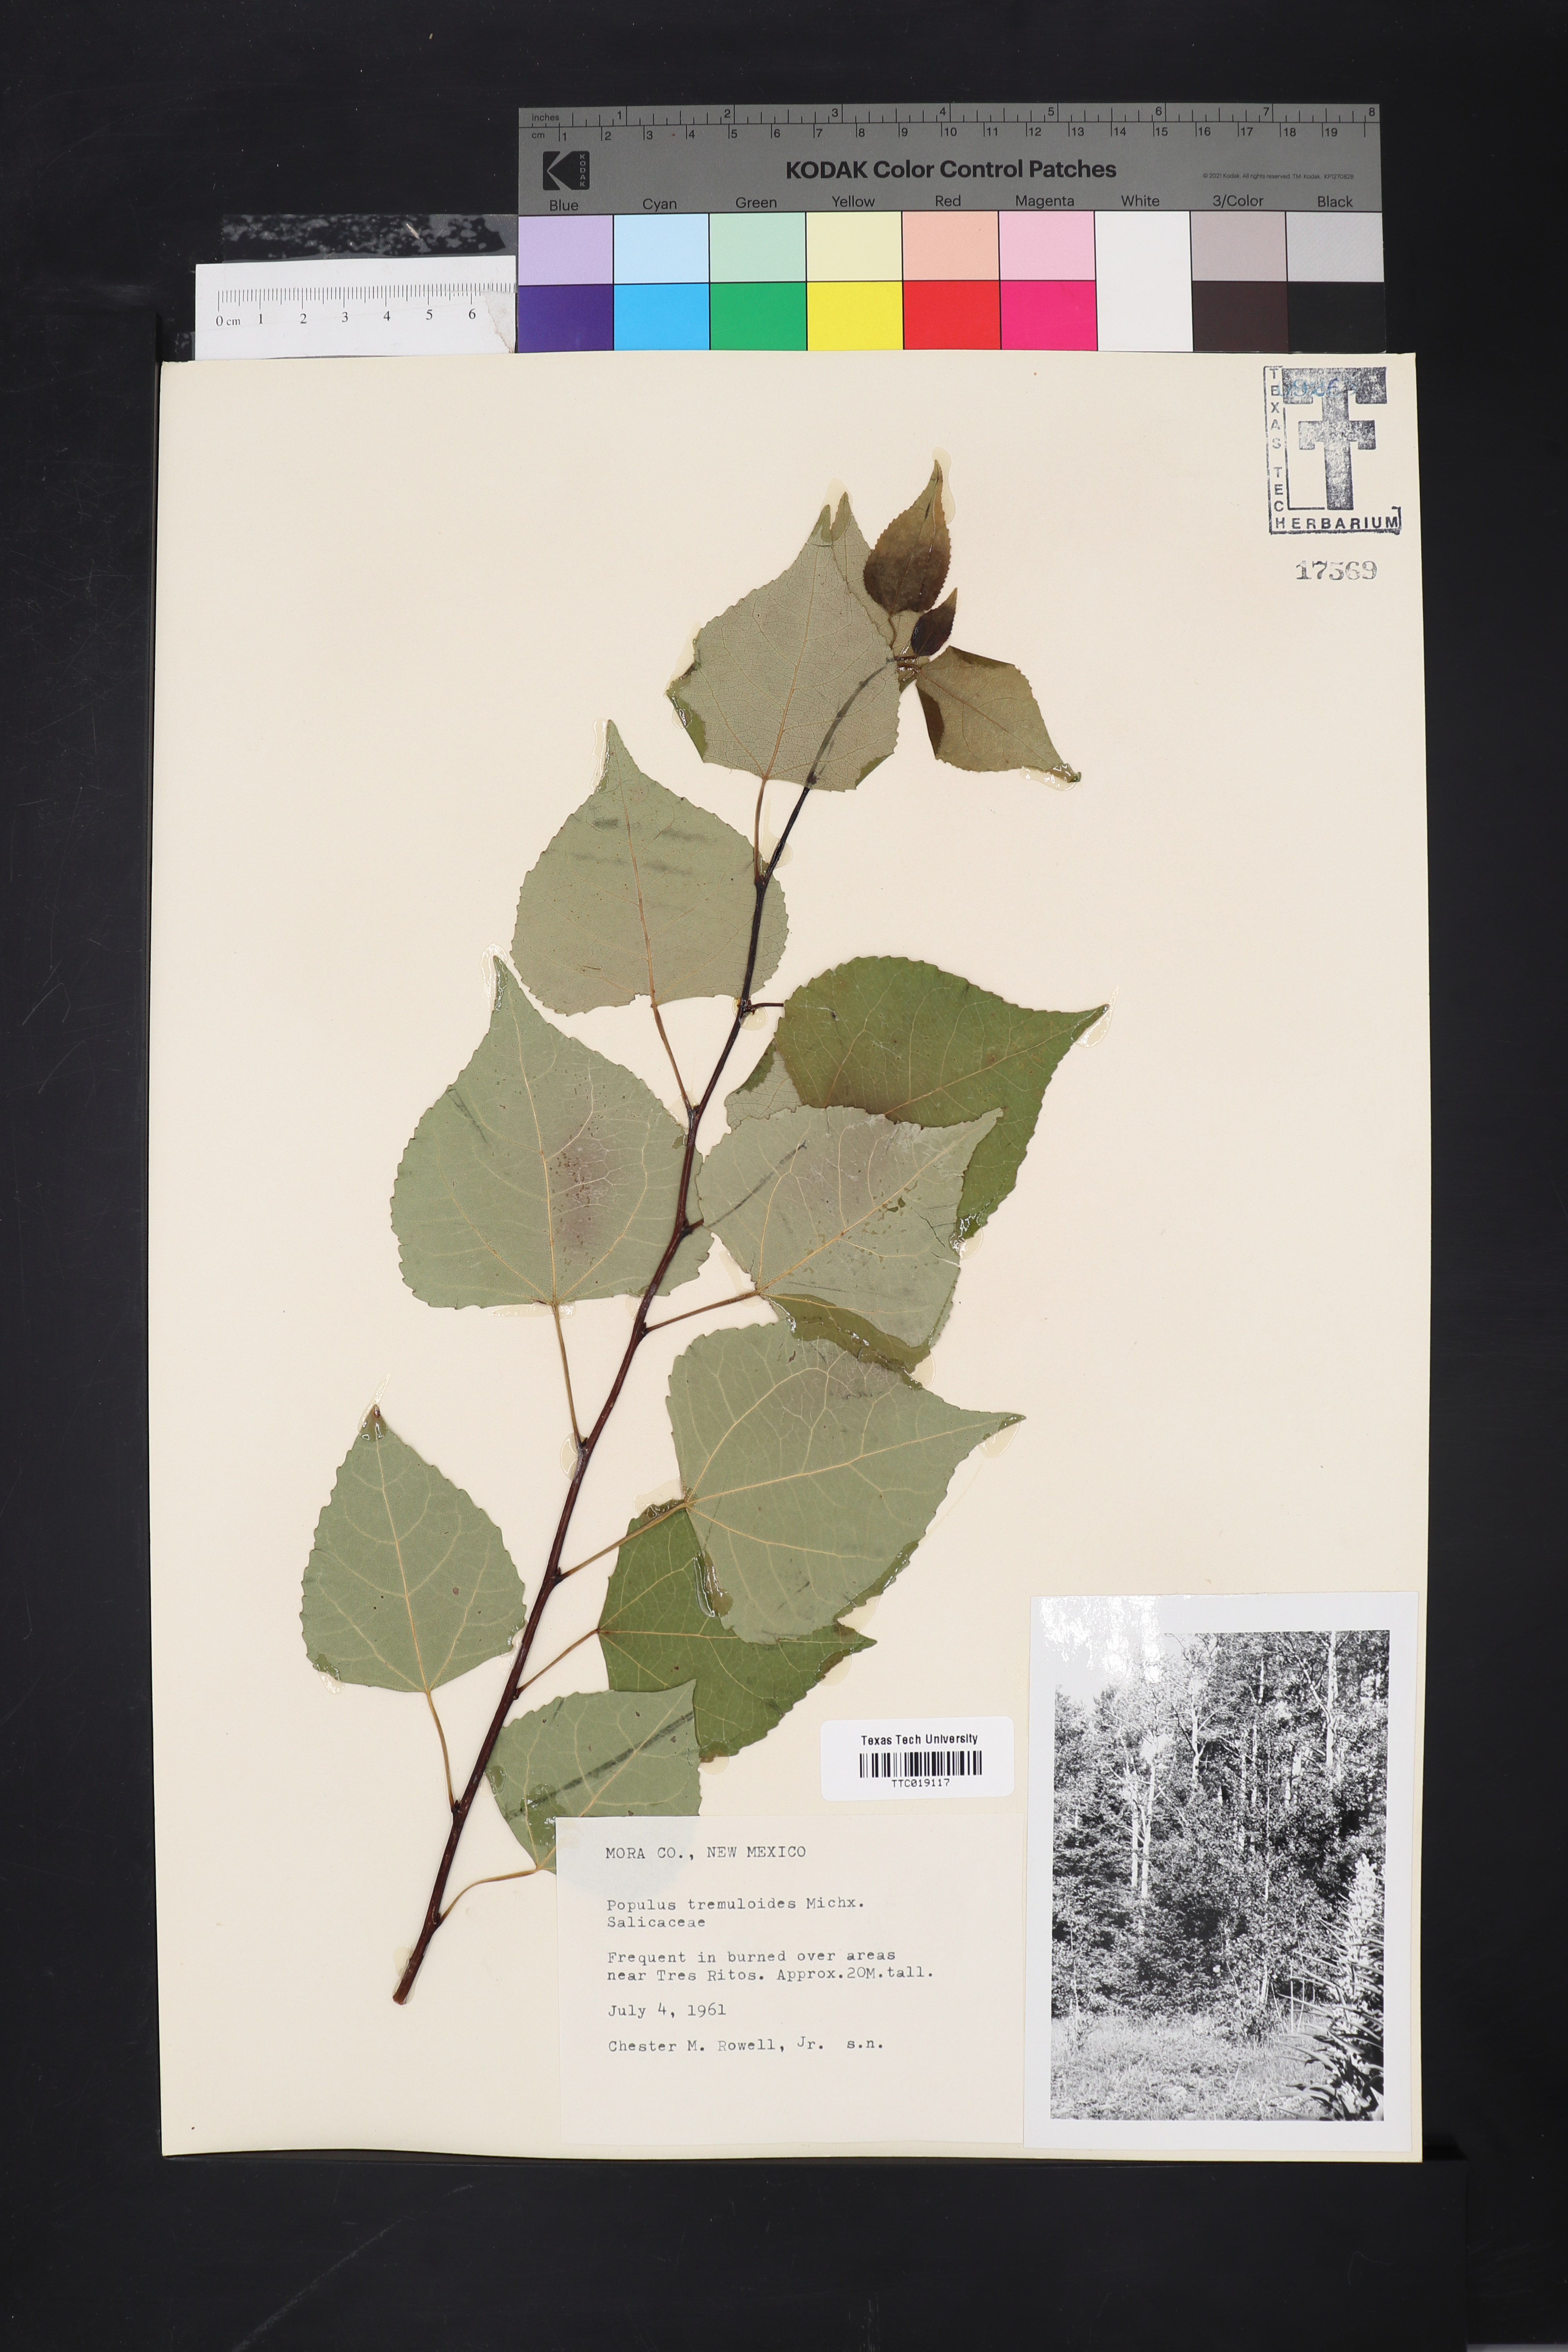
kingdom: Plantae
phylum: Tracheophyta
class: Magnoliopsida
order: Malpighiales
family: Salicaceae
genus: Populus
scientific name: Populus tremuloides
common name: Quaking aspen
